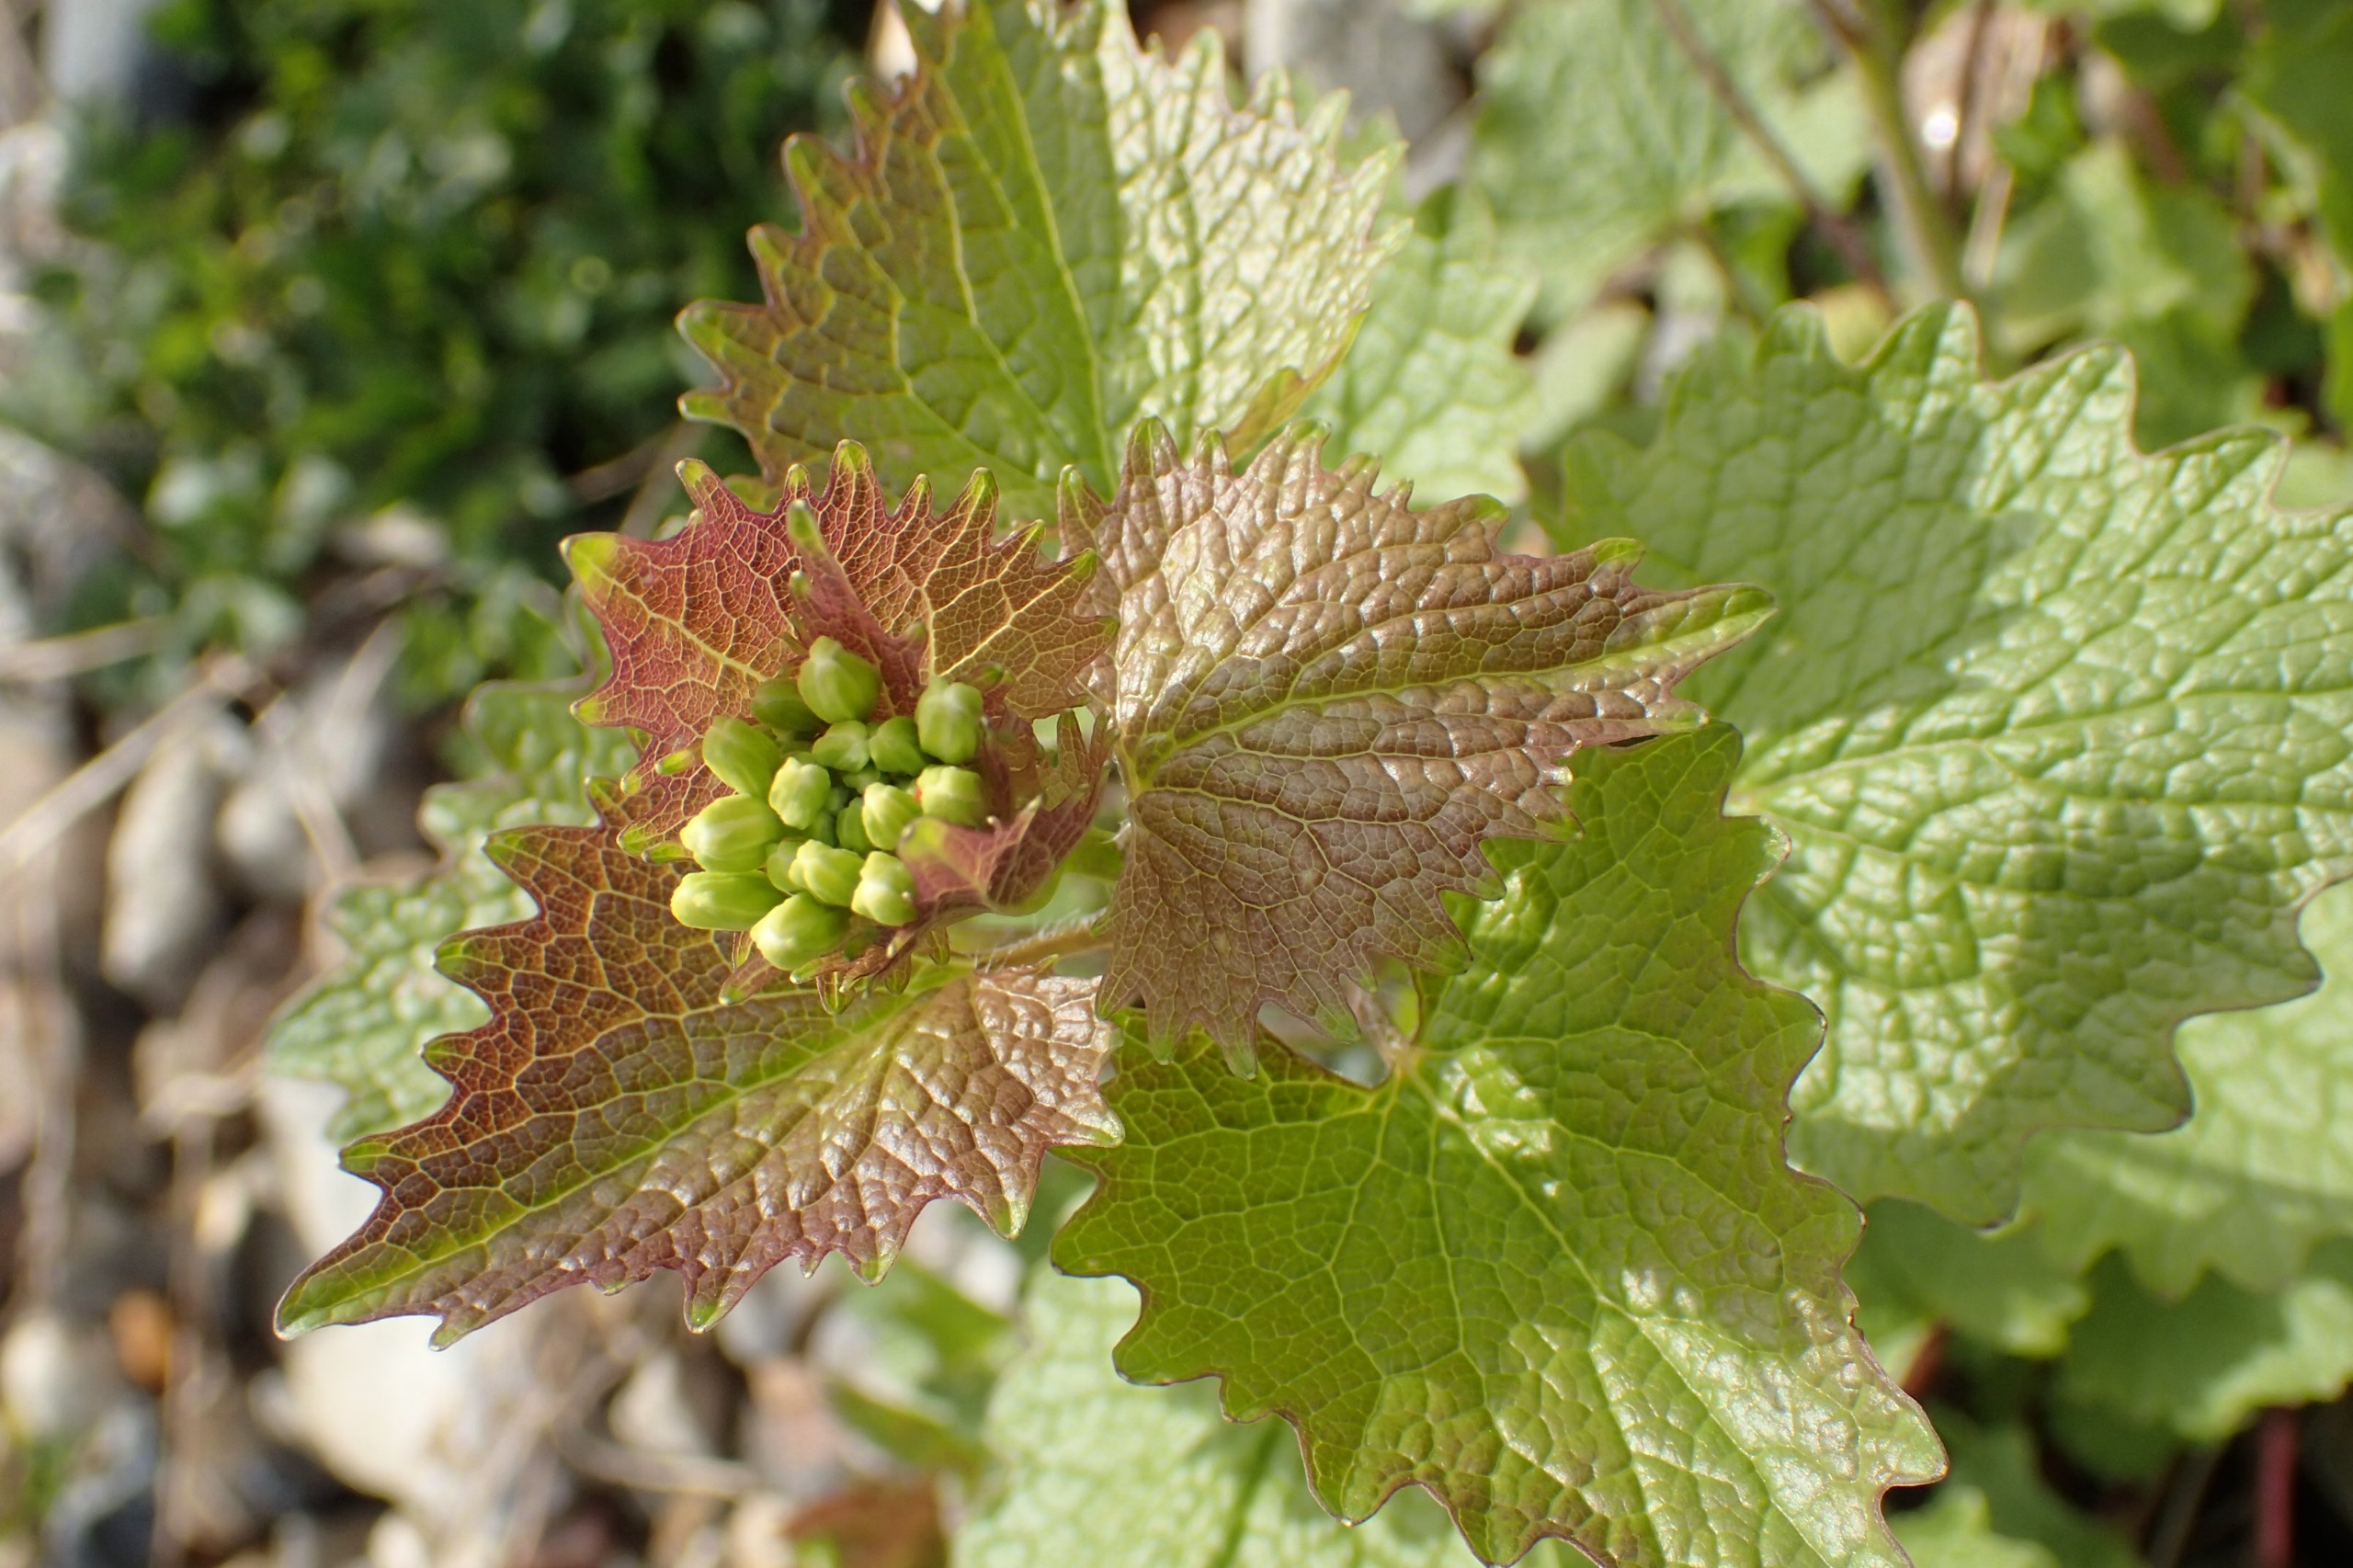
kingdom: Plantae
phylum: Tracheophyta
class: Magnoliopsida
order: Brassicales
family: Brassicaceae
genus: Alliaria
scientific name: Alliaria petiolata
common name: Løgkarse
